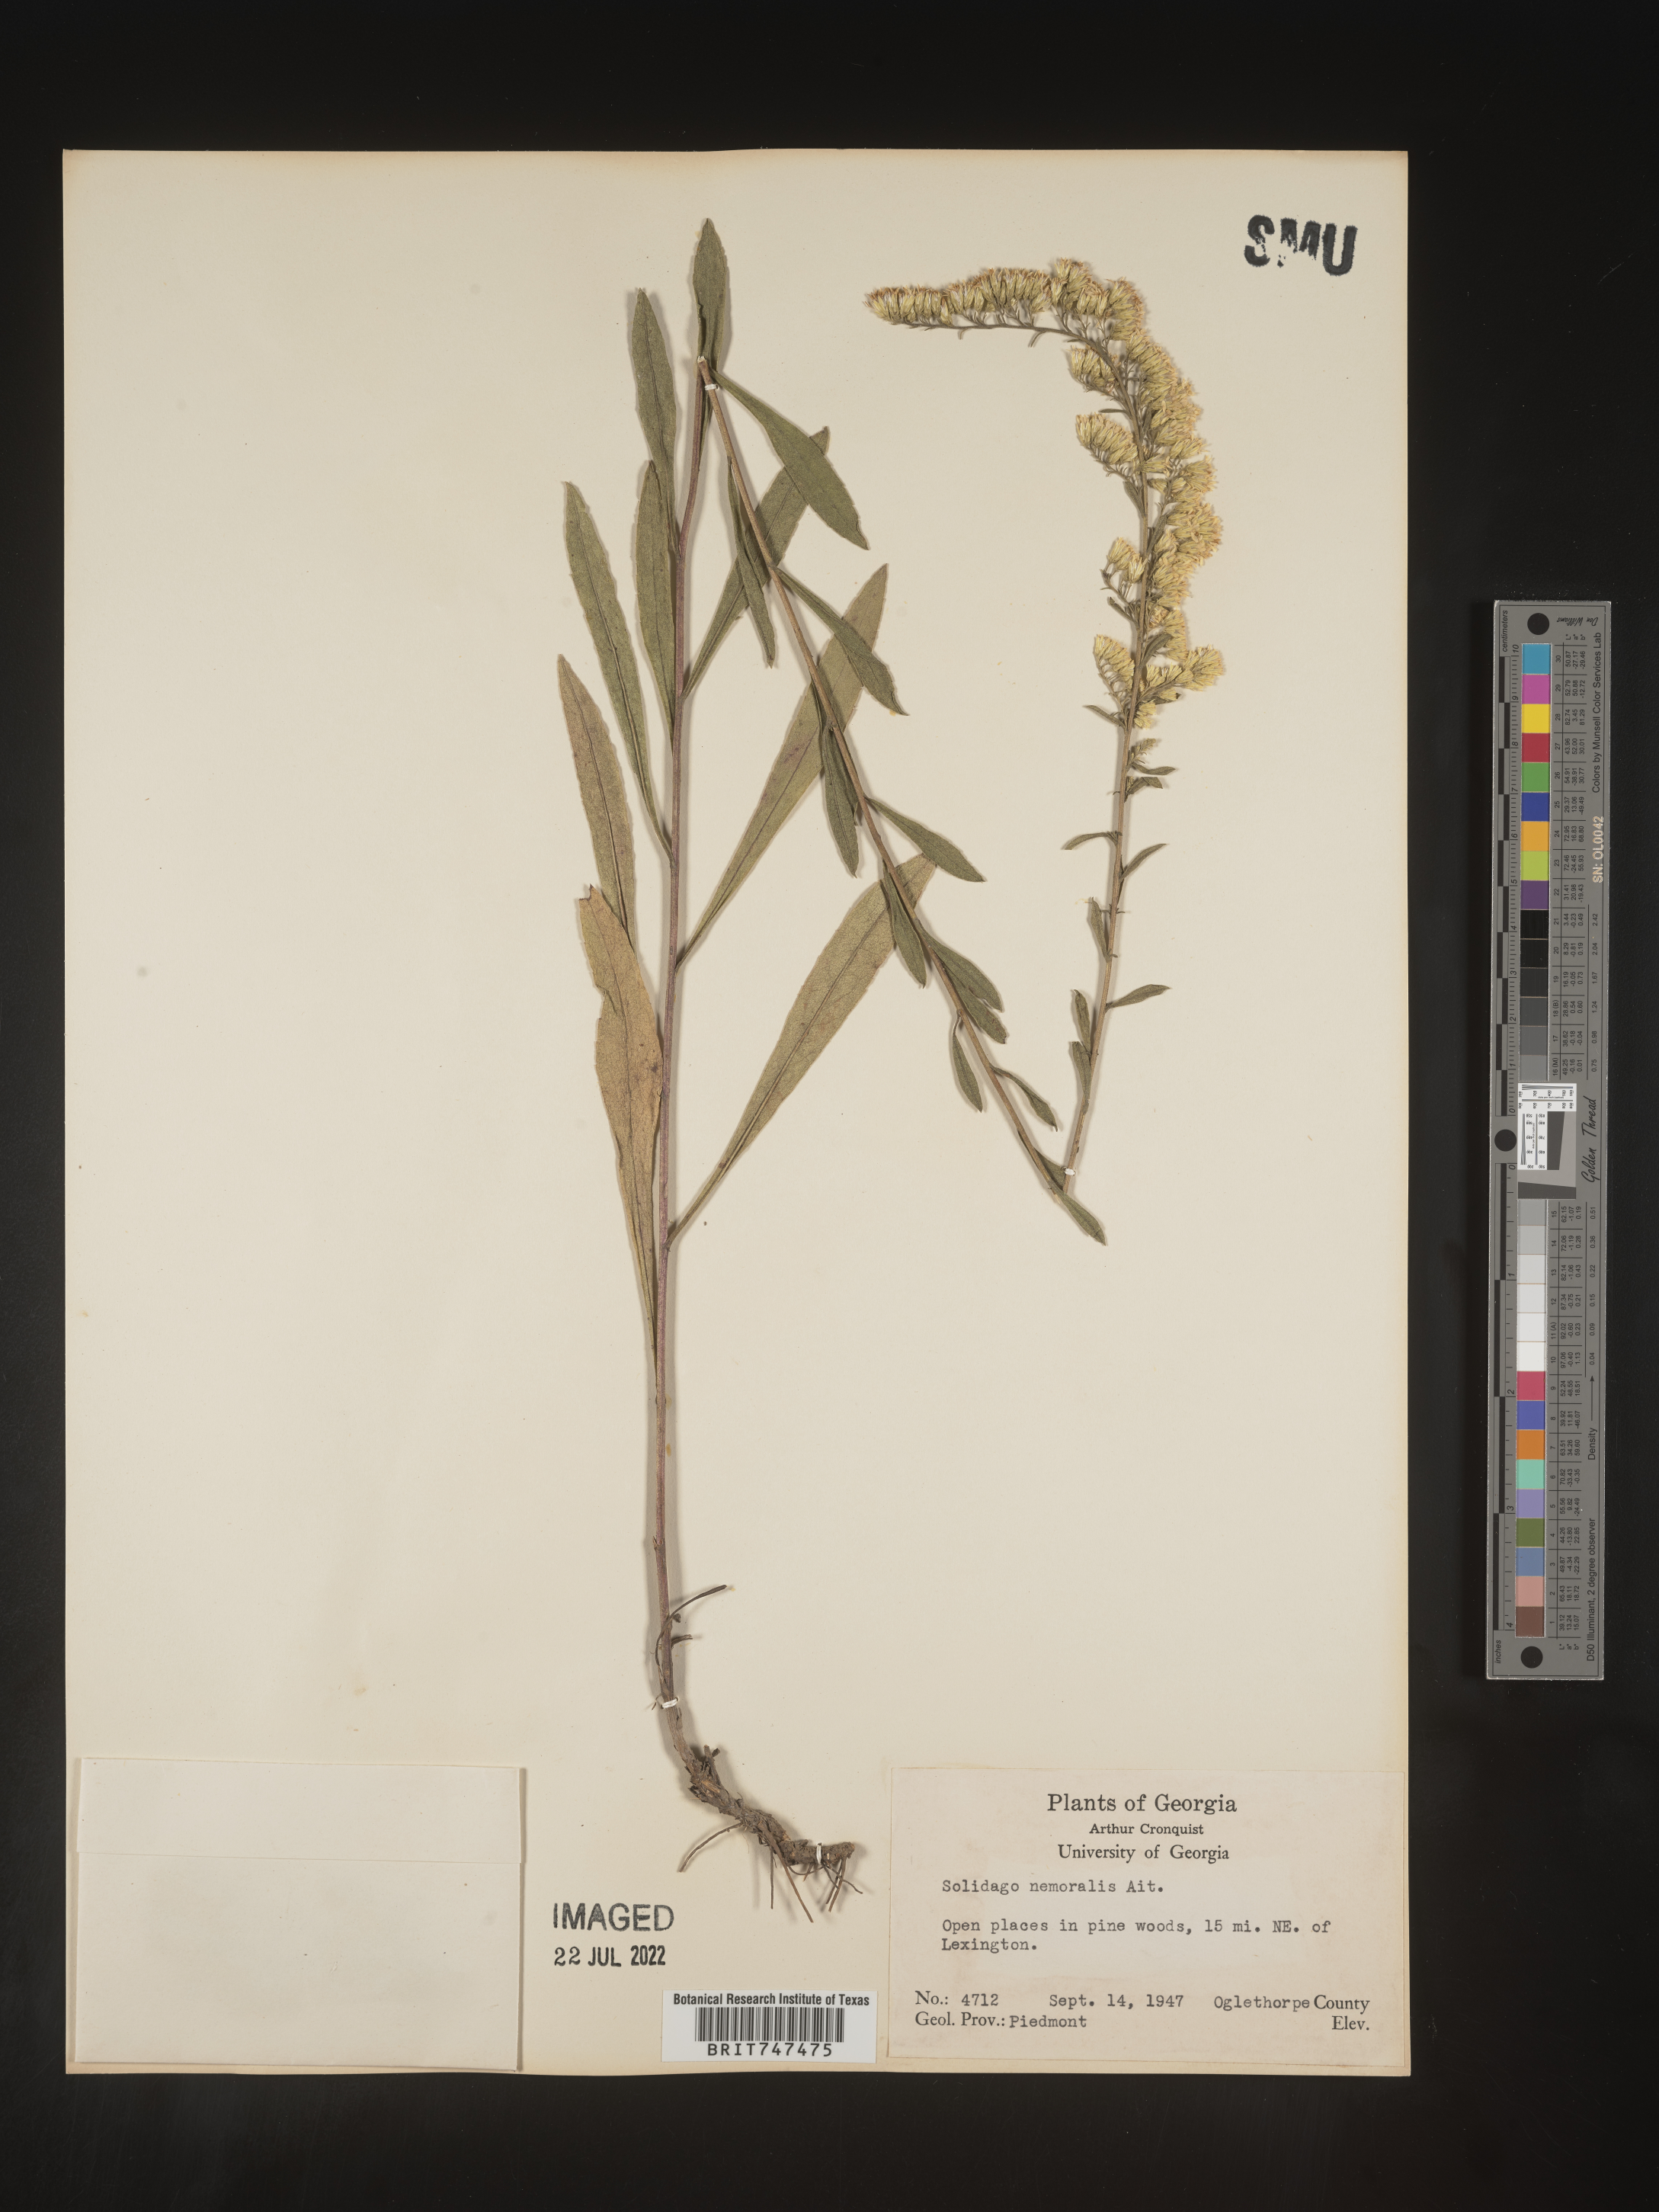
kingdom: Plantae
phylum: Tracheophyta
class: Magnoliopsida
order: Asterales
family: Asteraceae
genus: Solidago
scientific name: Solidago nemoralis
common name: Grey goldenrod
